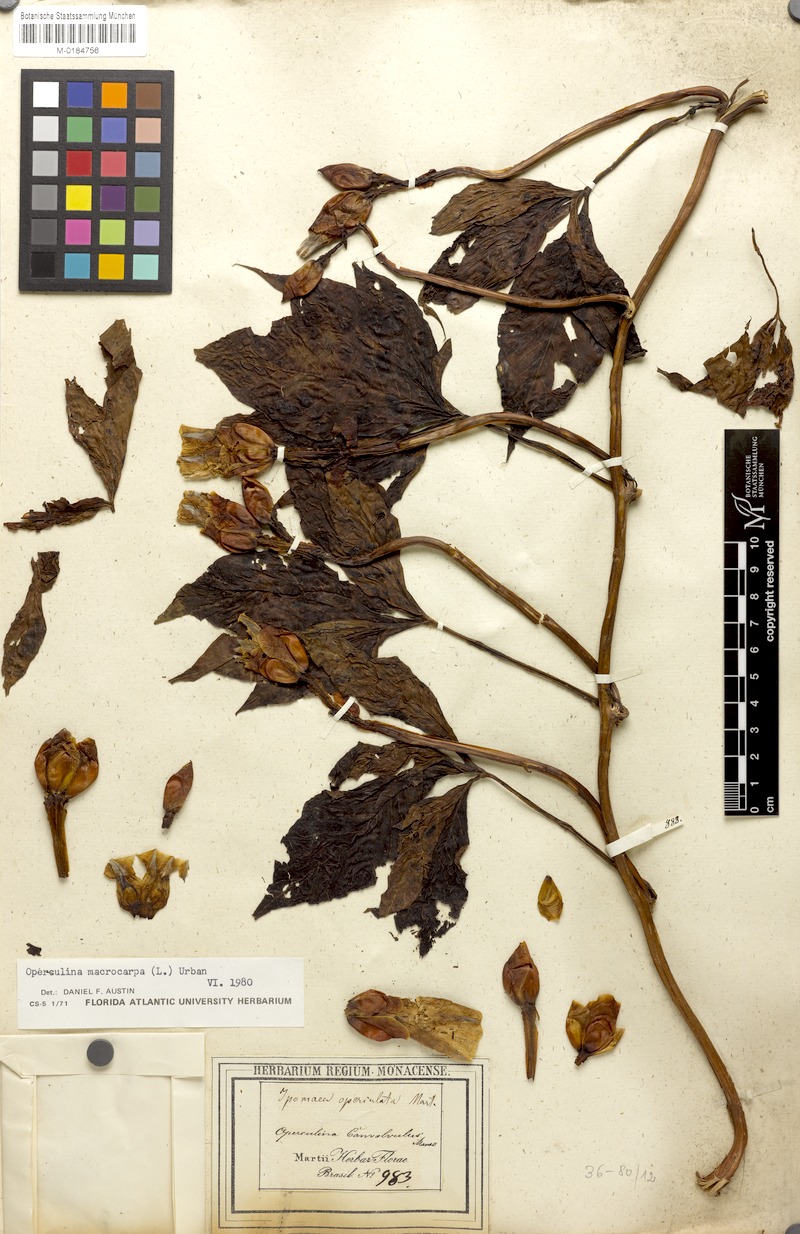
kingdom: Plantae
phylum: Tracheophyta
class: Magnoliopsida
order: Solanales
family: Convolvulaceae
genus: Operculina
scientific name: Operculina macrocarpa
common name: Brazilian jalap
